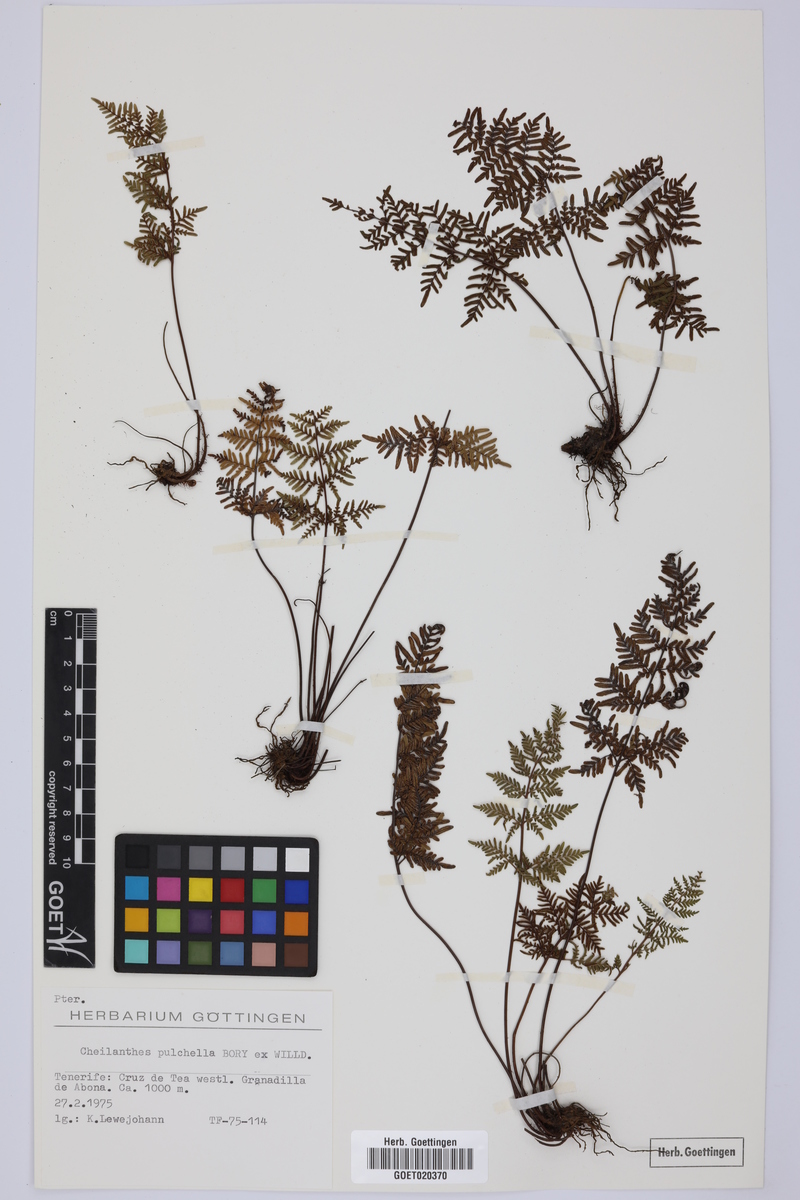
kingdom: Plantae
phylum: Tracheophyta
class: Polypodiopsida
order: Polypodiales
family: Pteridaceae
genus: Oeosporangium
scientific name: Oeosporangium pulchellum
